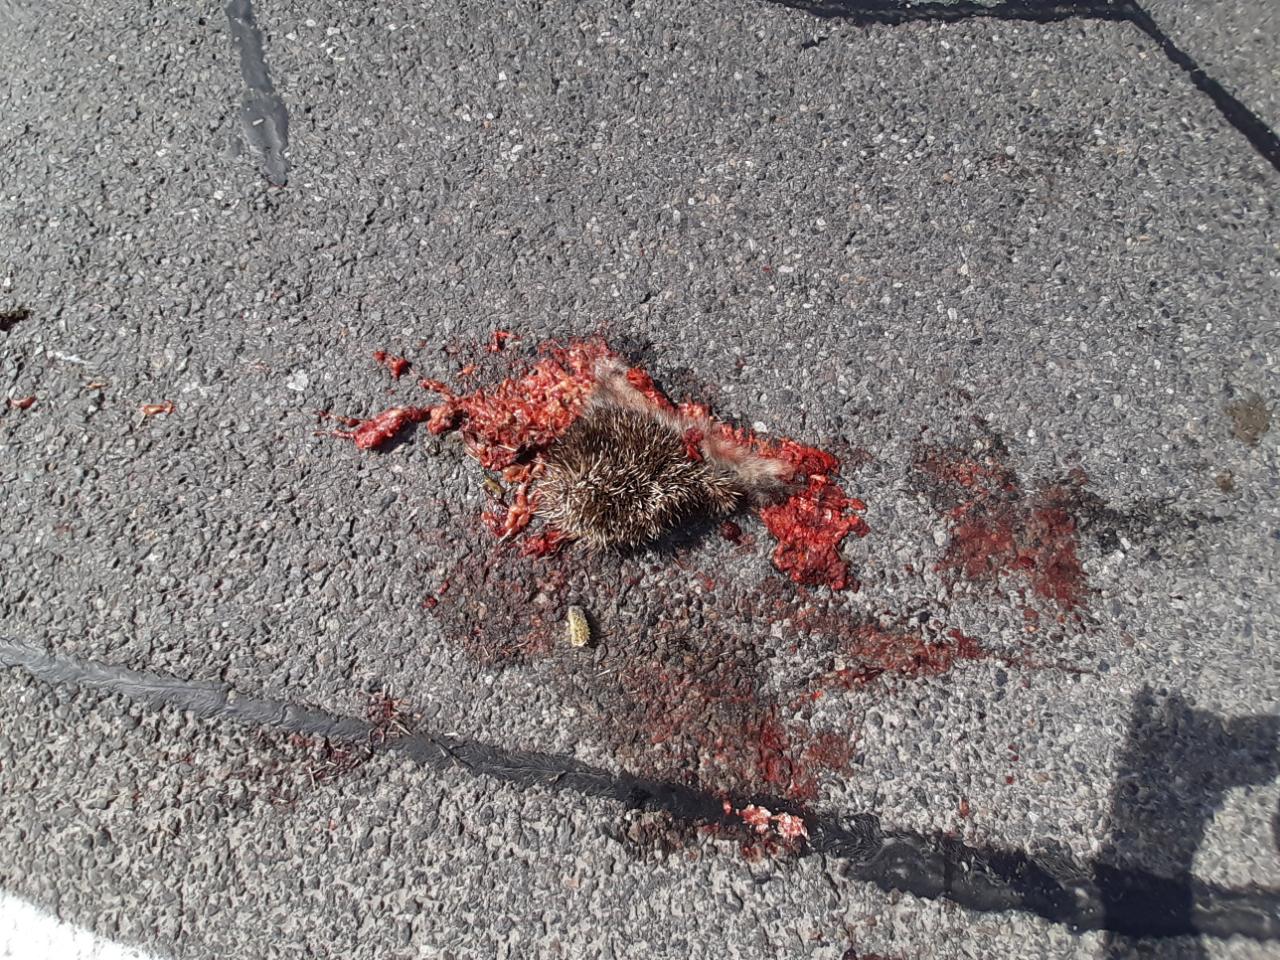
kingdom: Animalia
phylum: Chordata
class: Mammalia
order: Erinaceomorpha
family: Erinaceidae
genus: Erinaceus
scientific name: Erinaceus
